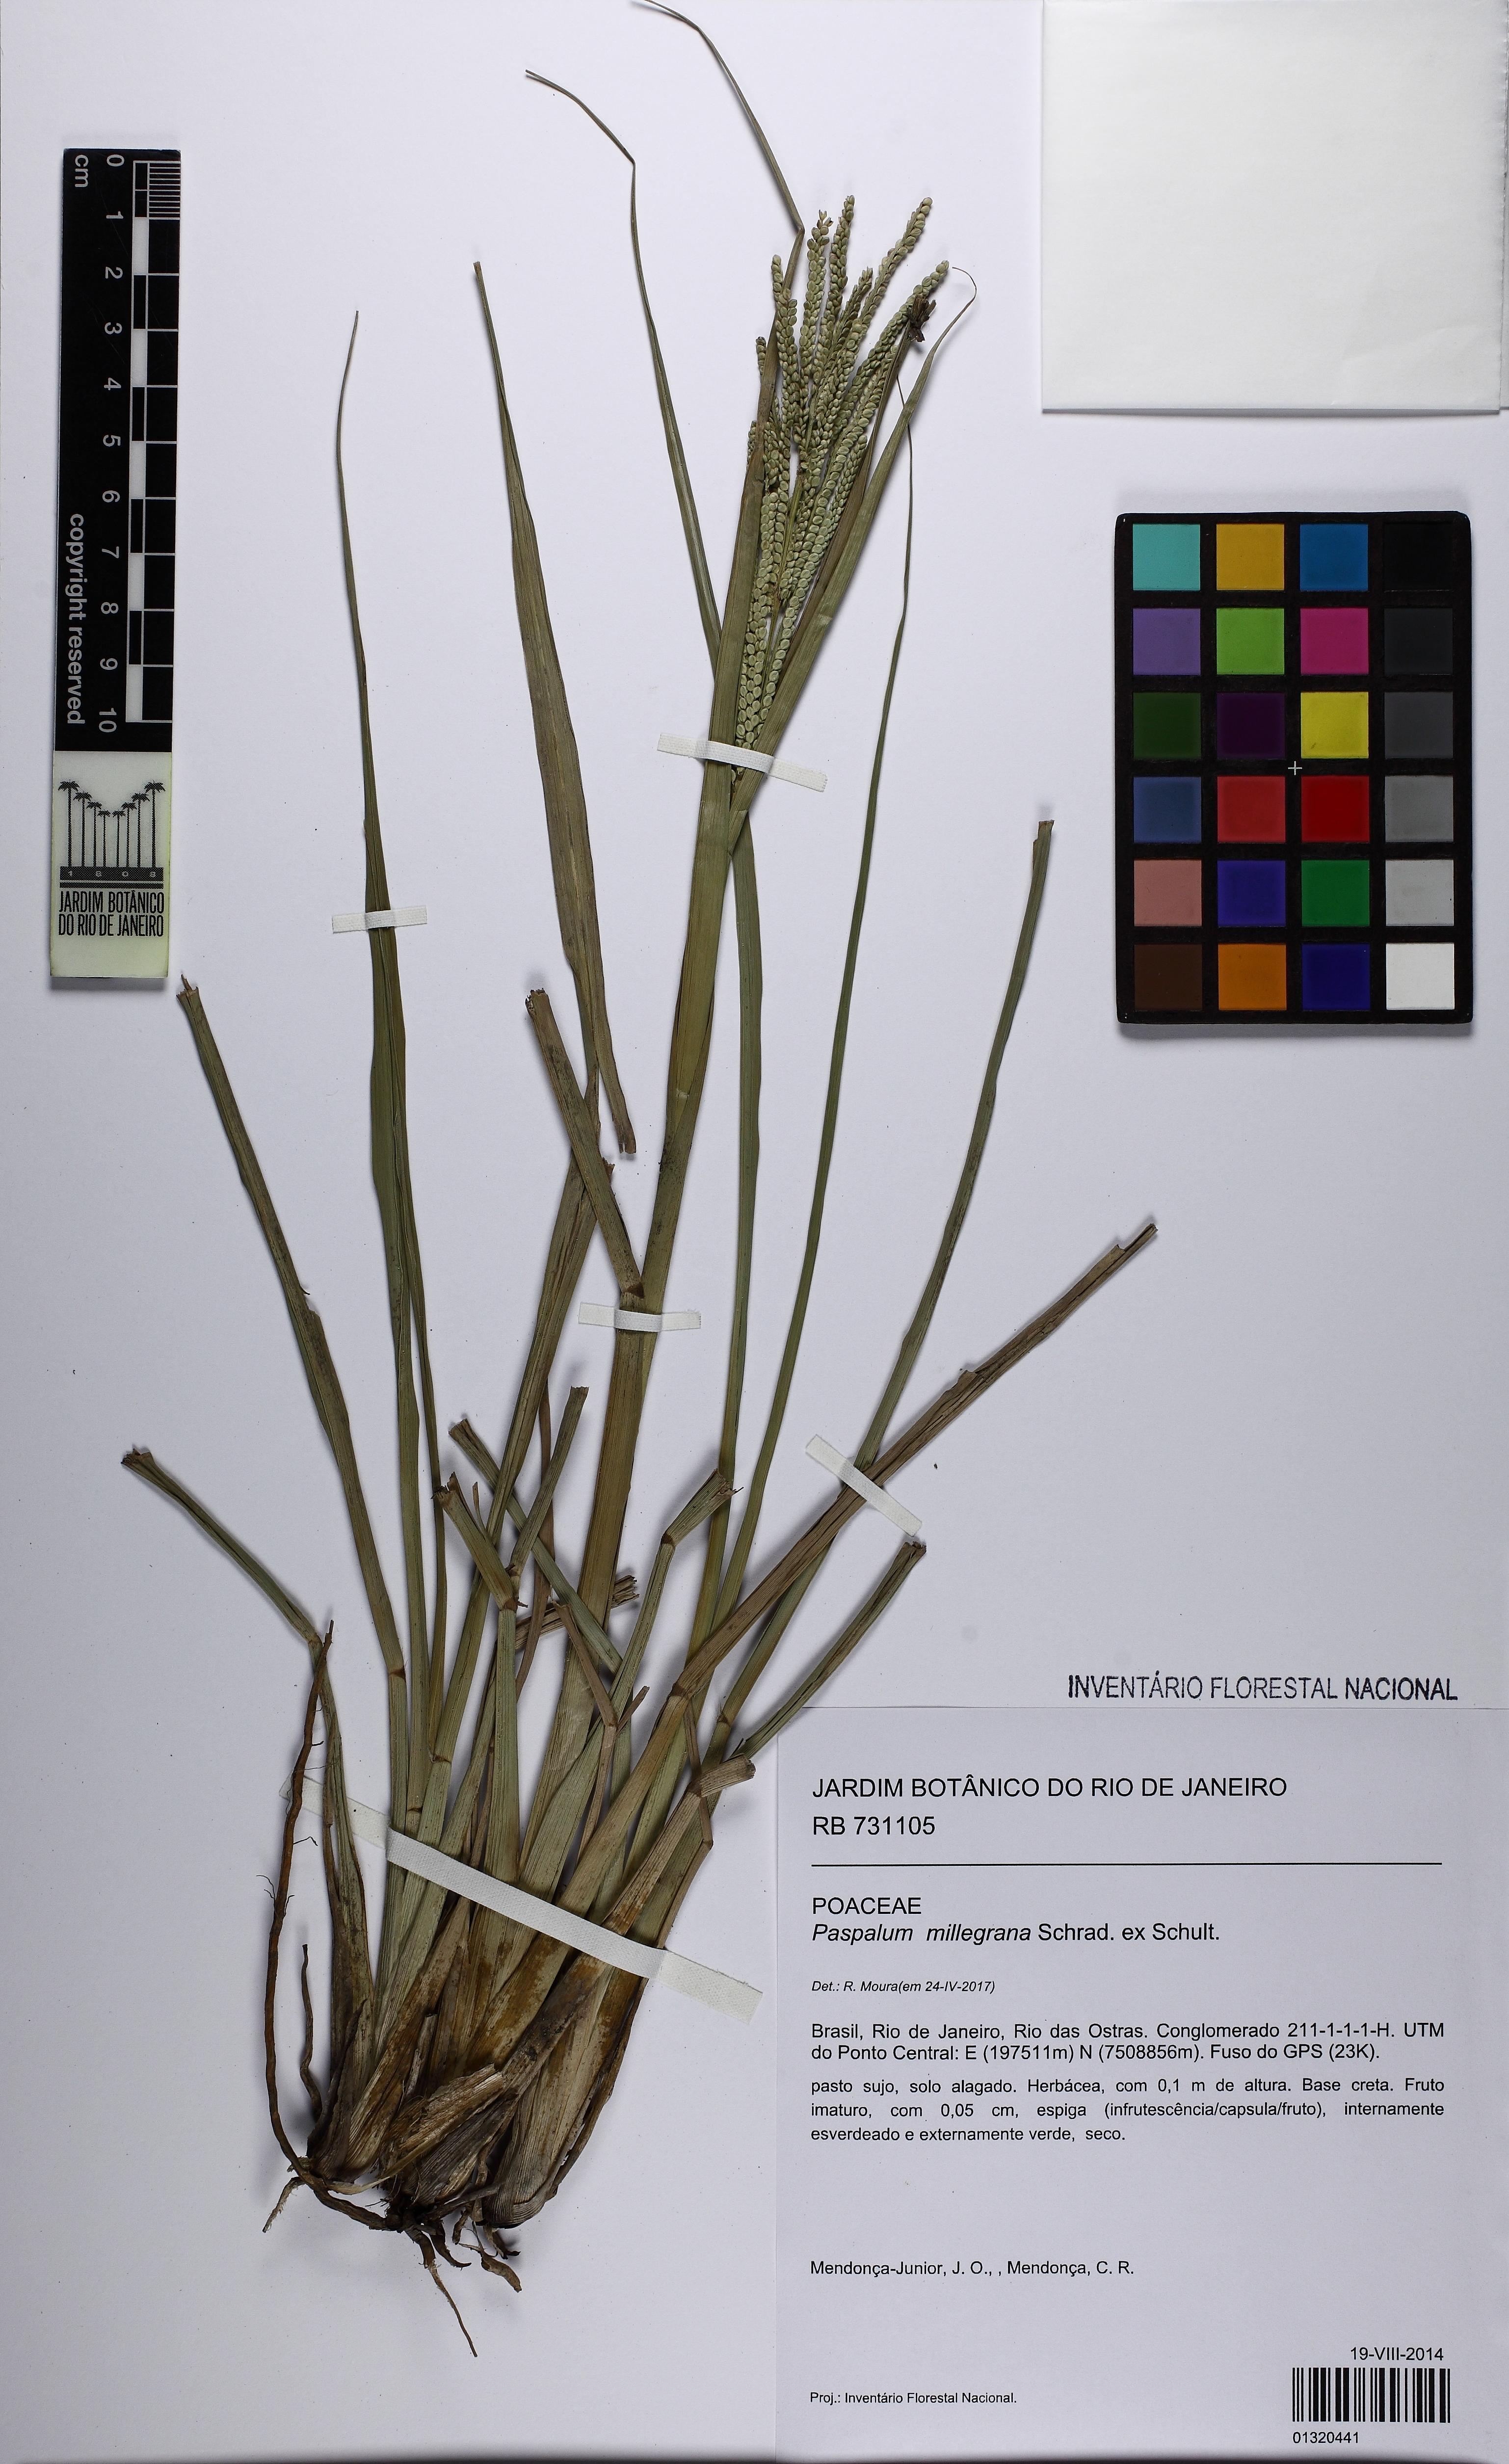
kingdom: Plantae
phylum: Tracheophyta
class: Liliopsida
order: Poales
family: Poaceae
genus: Paspalum
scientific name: Paspalum millegrana
